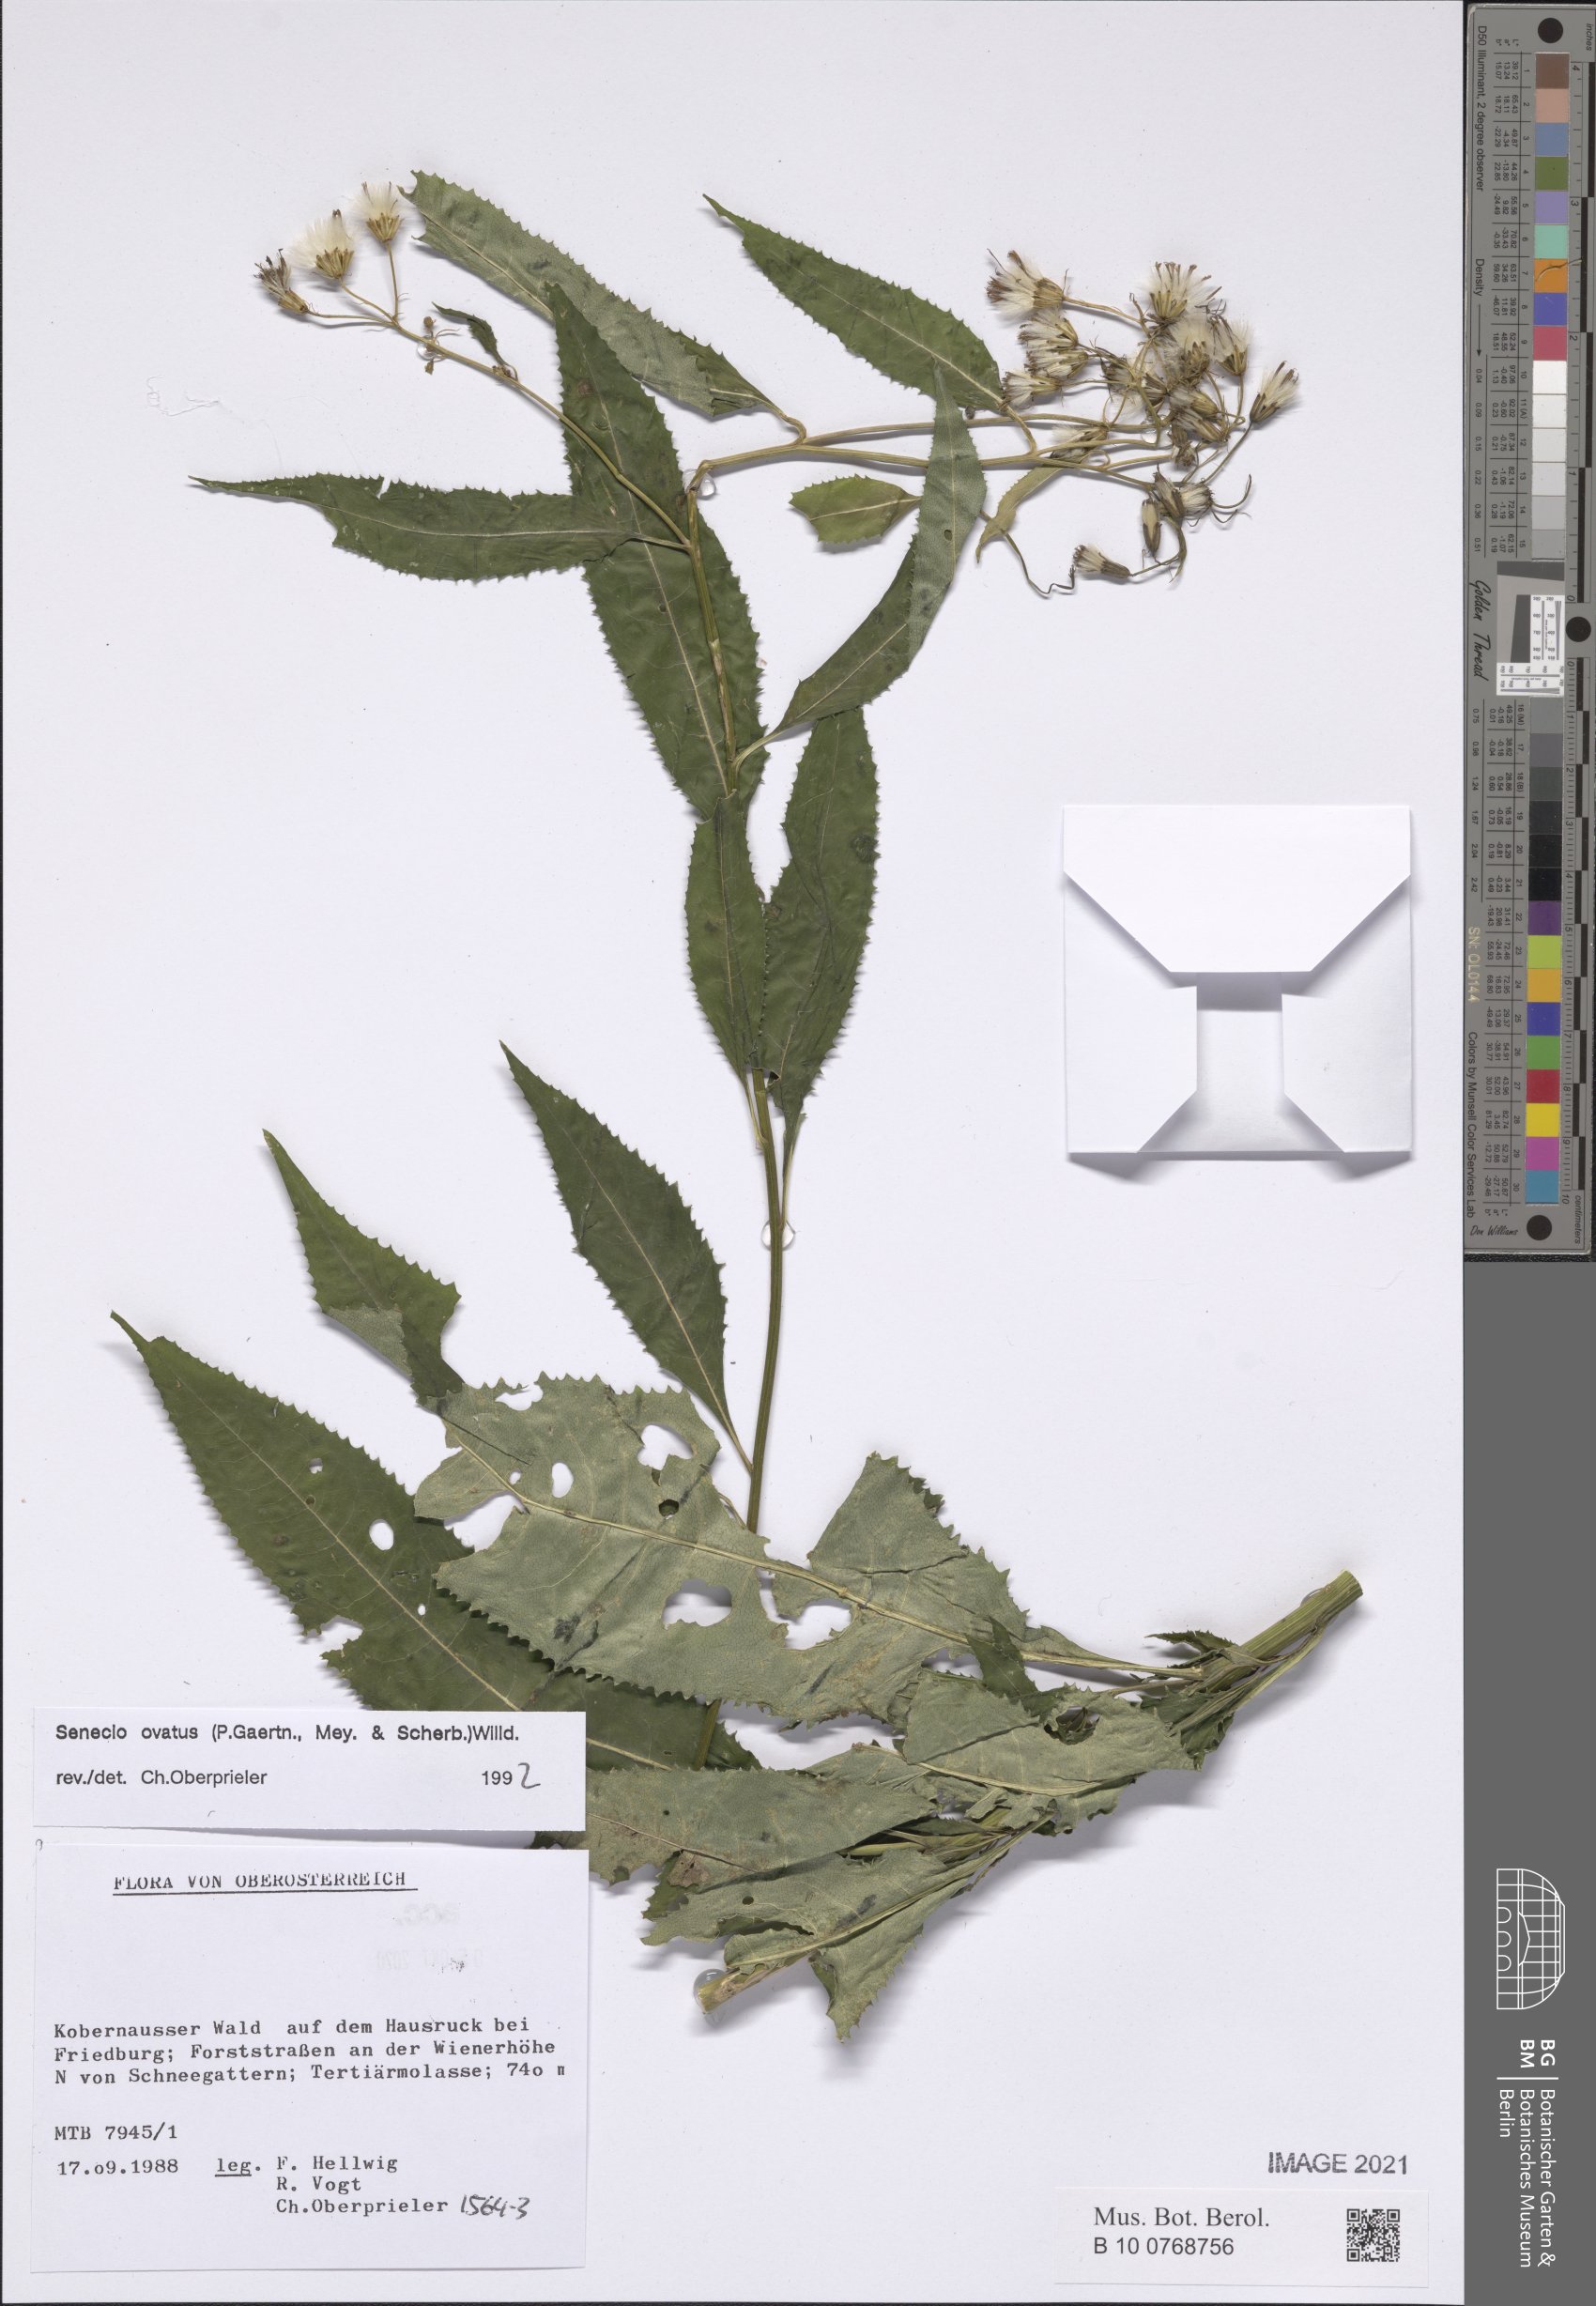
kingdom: Plantae
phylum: Tracheophyta
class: Magnoliopsida
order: Asterales
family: Asteraceae
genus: Senecio
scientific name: Senecio ovatus
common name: Wood ragwort
